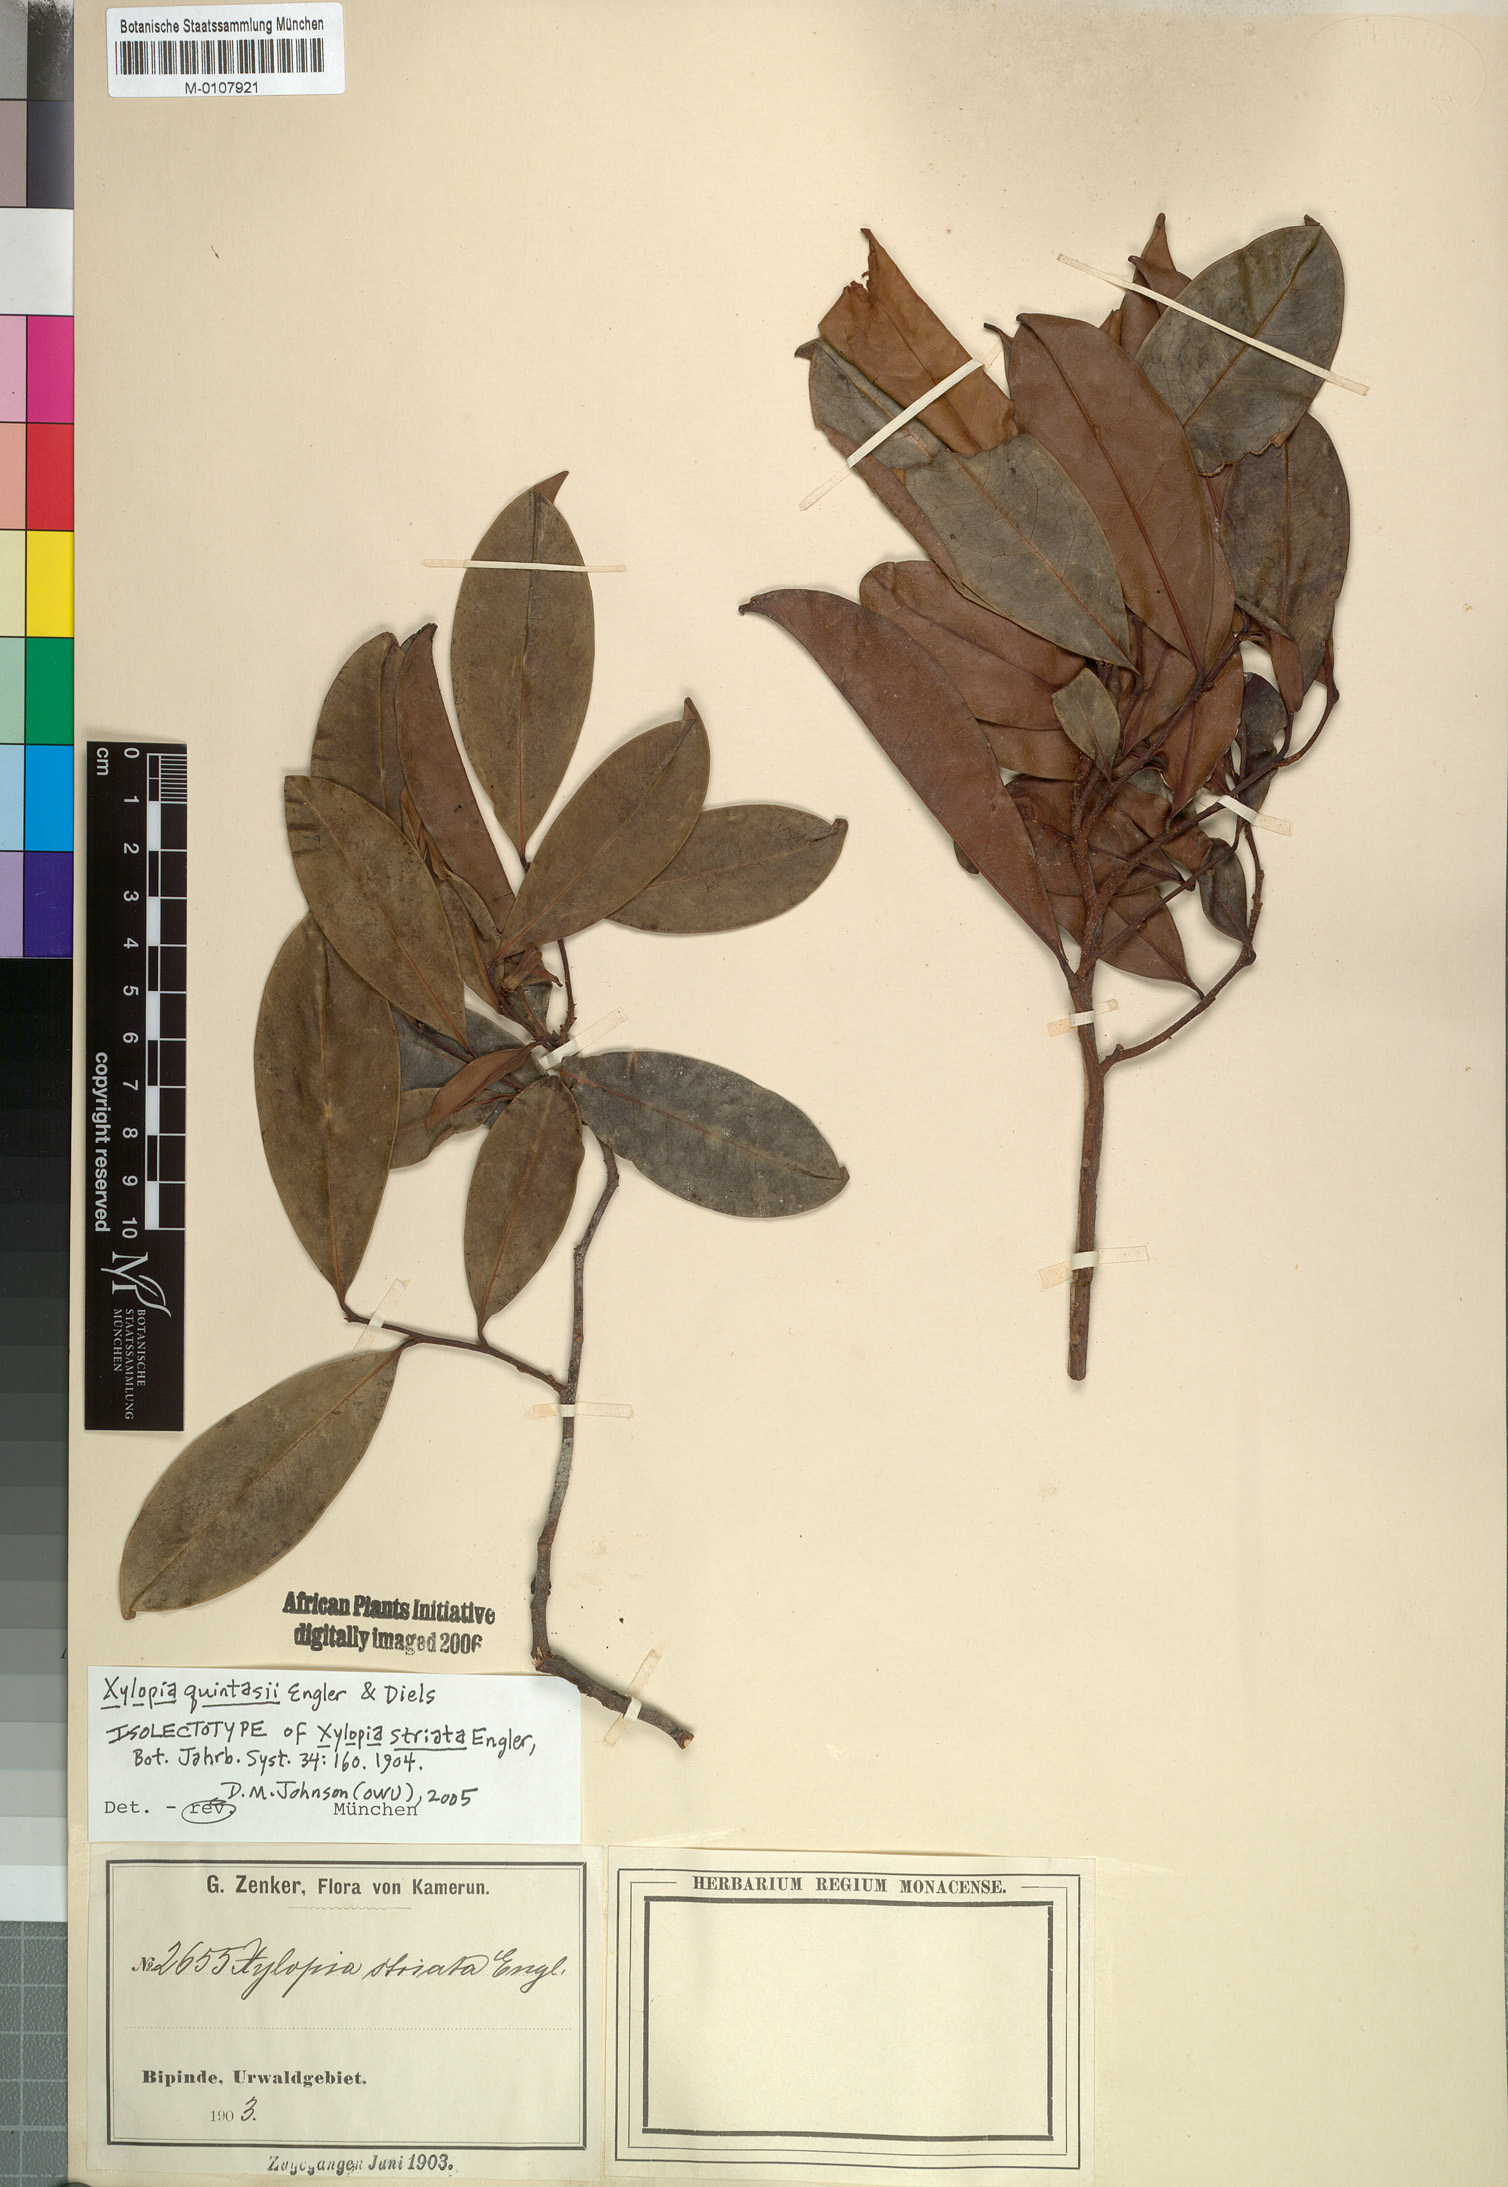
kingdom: Plantae
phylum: Tracheophyta
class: Magnoliopsida
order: Magnoliales
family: Annonaceae
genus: Xylopia
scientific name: Xylopia quintasii
